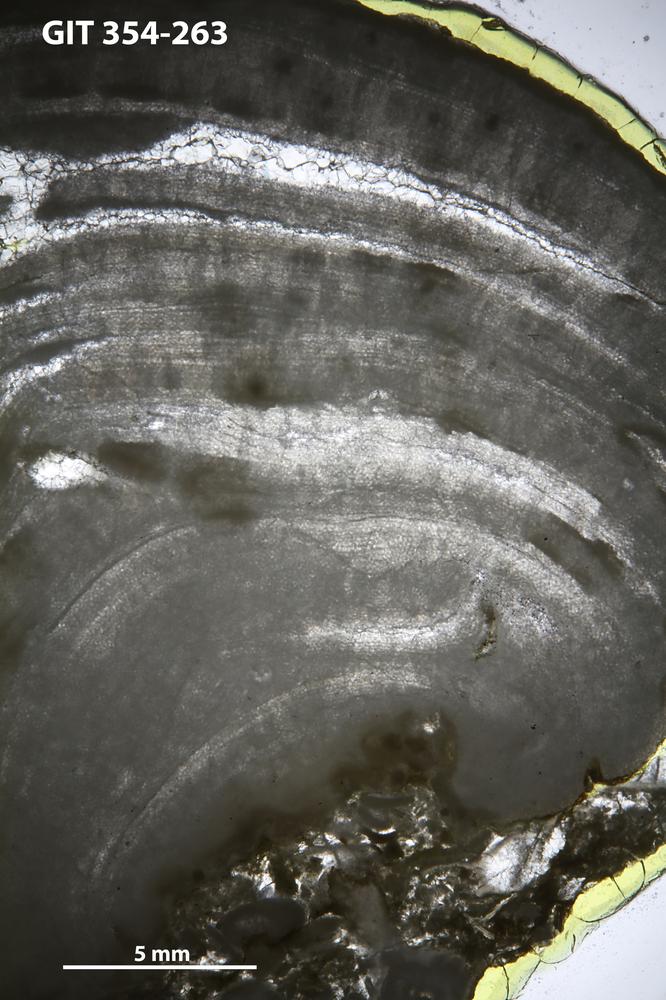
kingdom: Animalia
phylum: Porifera
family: Clathrodictyidae
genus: Clathrodictyon
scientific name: Clathrodictyon kudriavzevi
